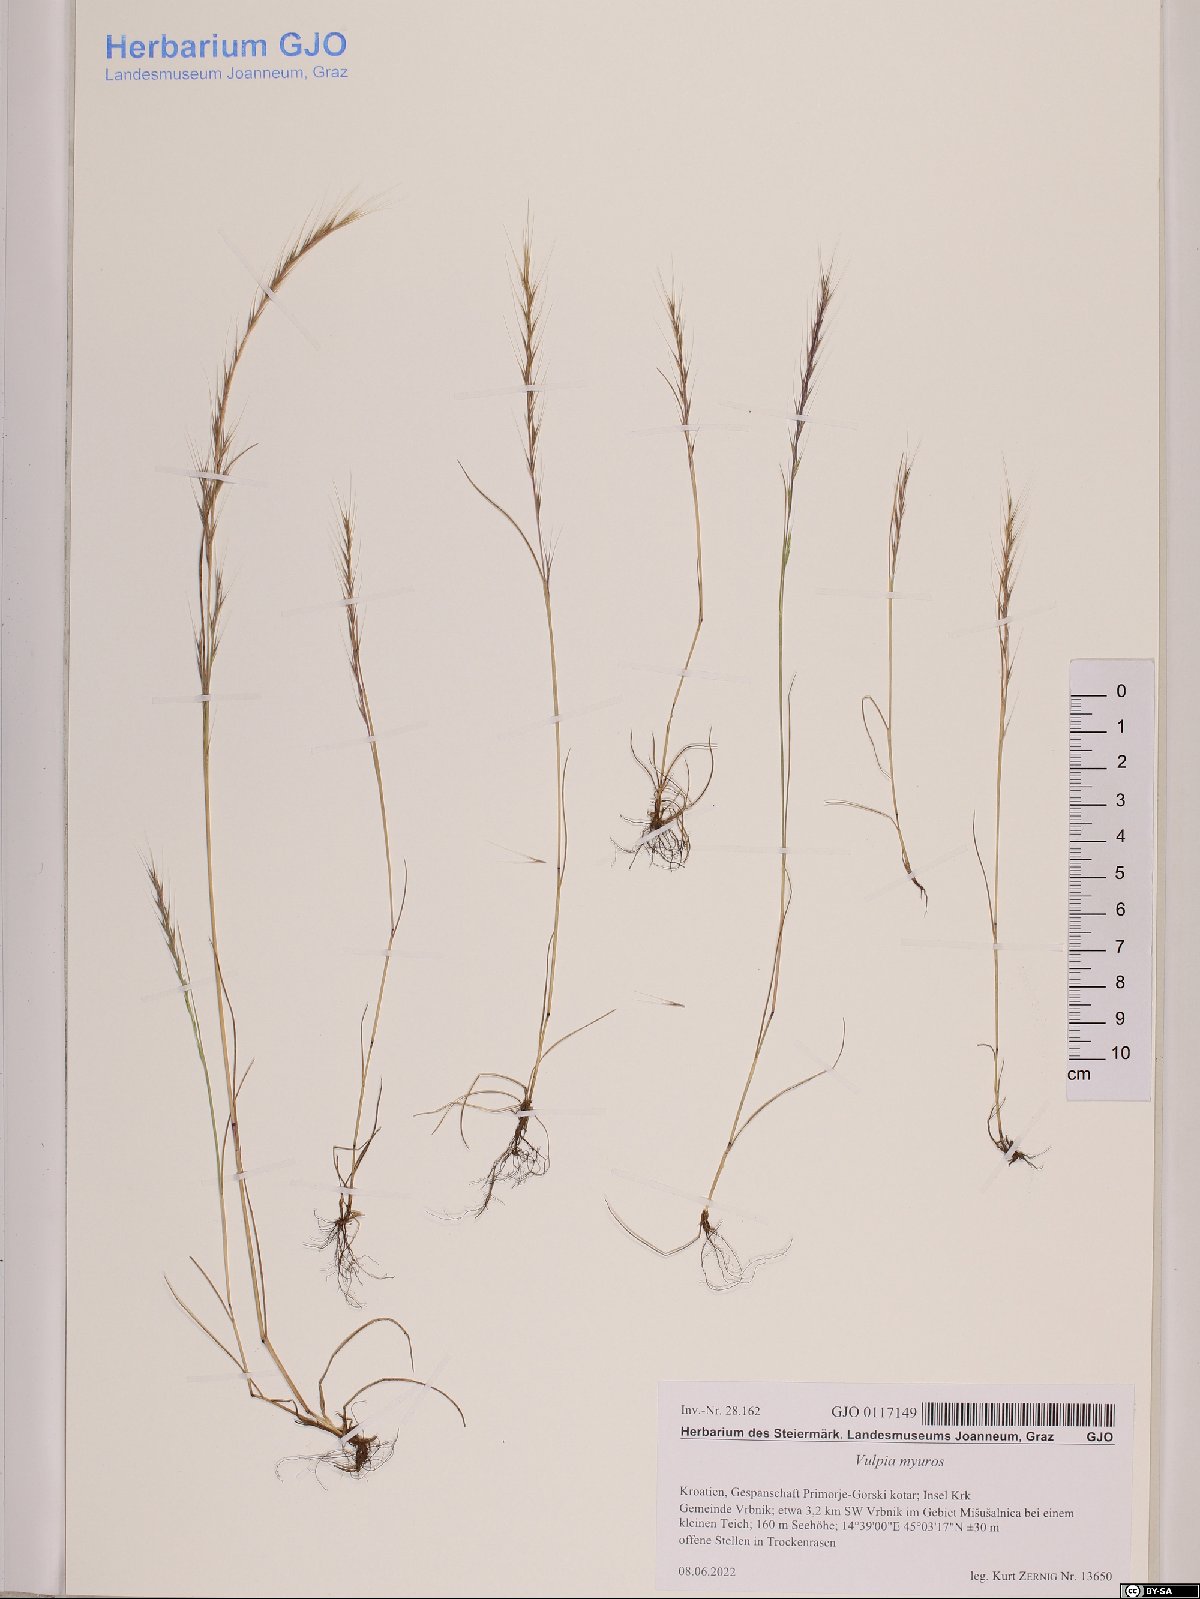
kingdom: Plantae
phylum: Tracheophyta
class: Liliopsida
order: Poales
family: Poaceae
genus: Festuca
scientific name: Festuca myuros
